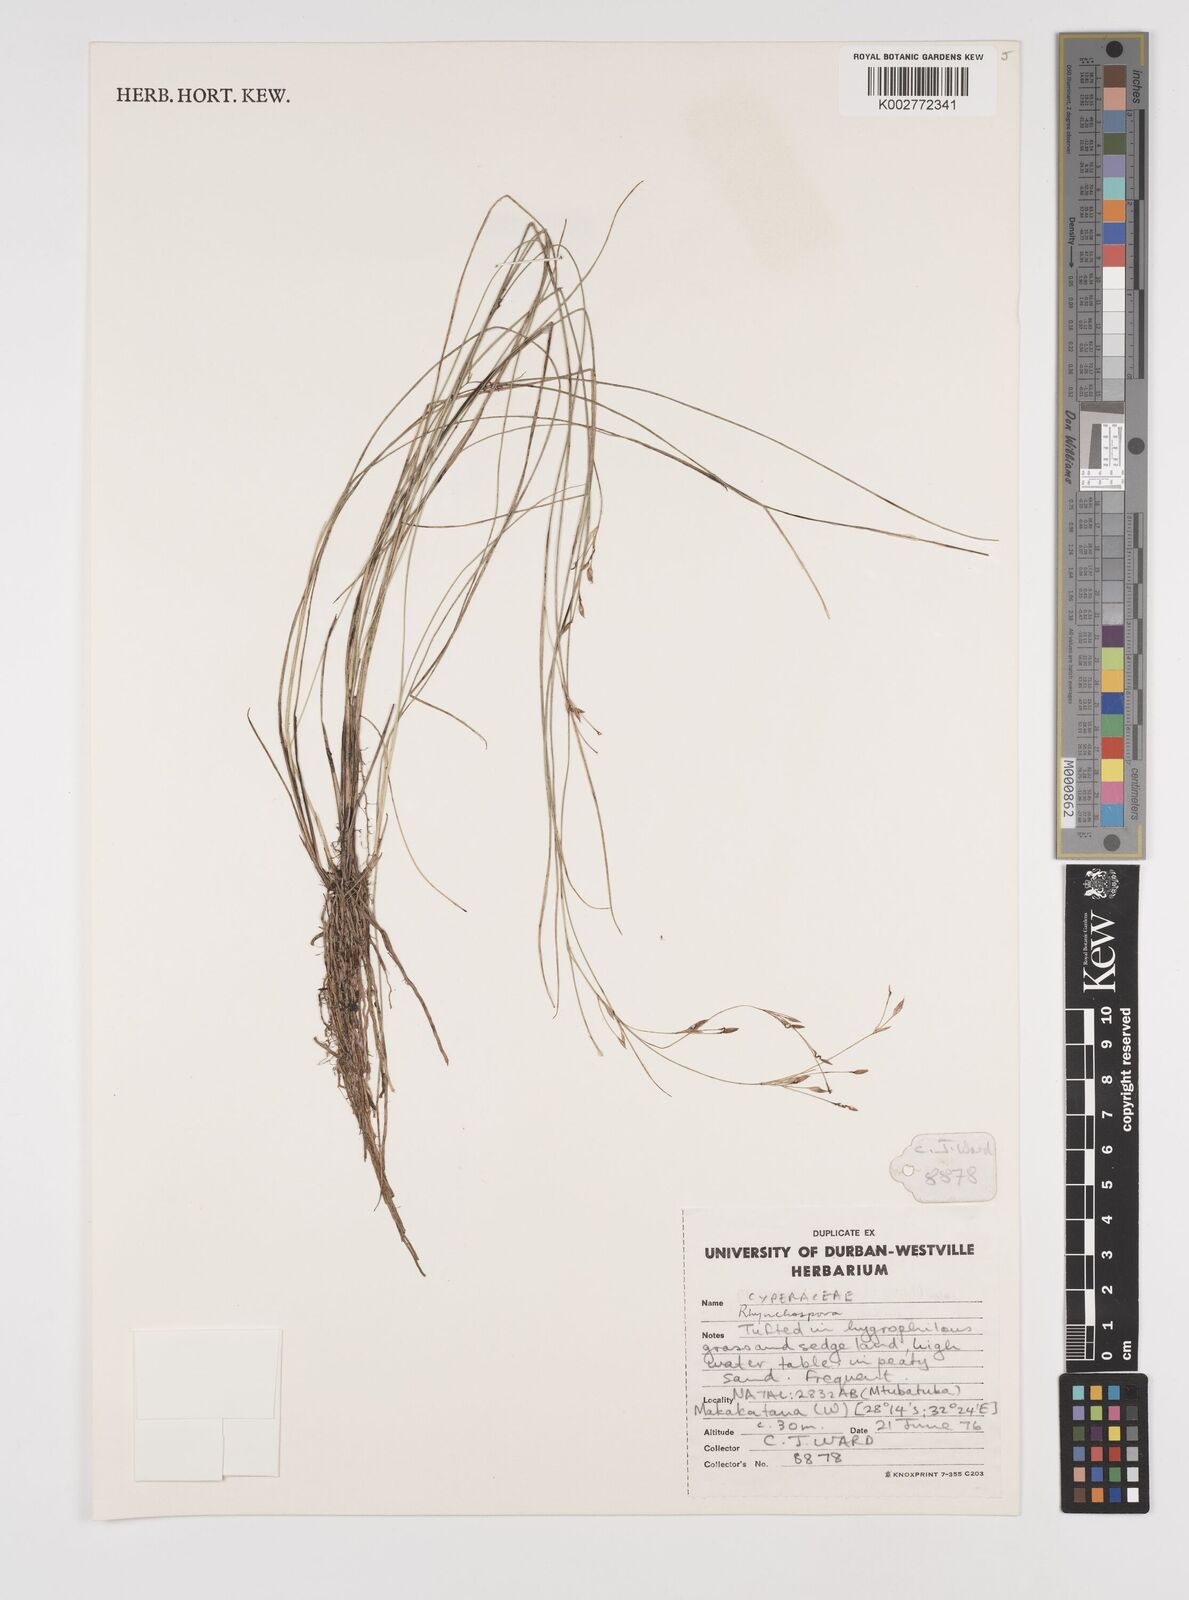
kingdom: Plantae
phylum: Tracheophyta
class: Liliopsida
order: Poales
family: Cyperaceae
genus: Rhynchospora
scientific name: Rhynchospora
